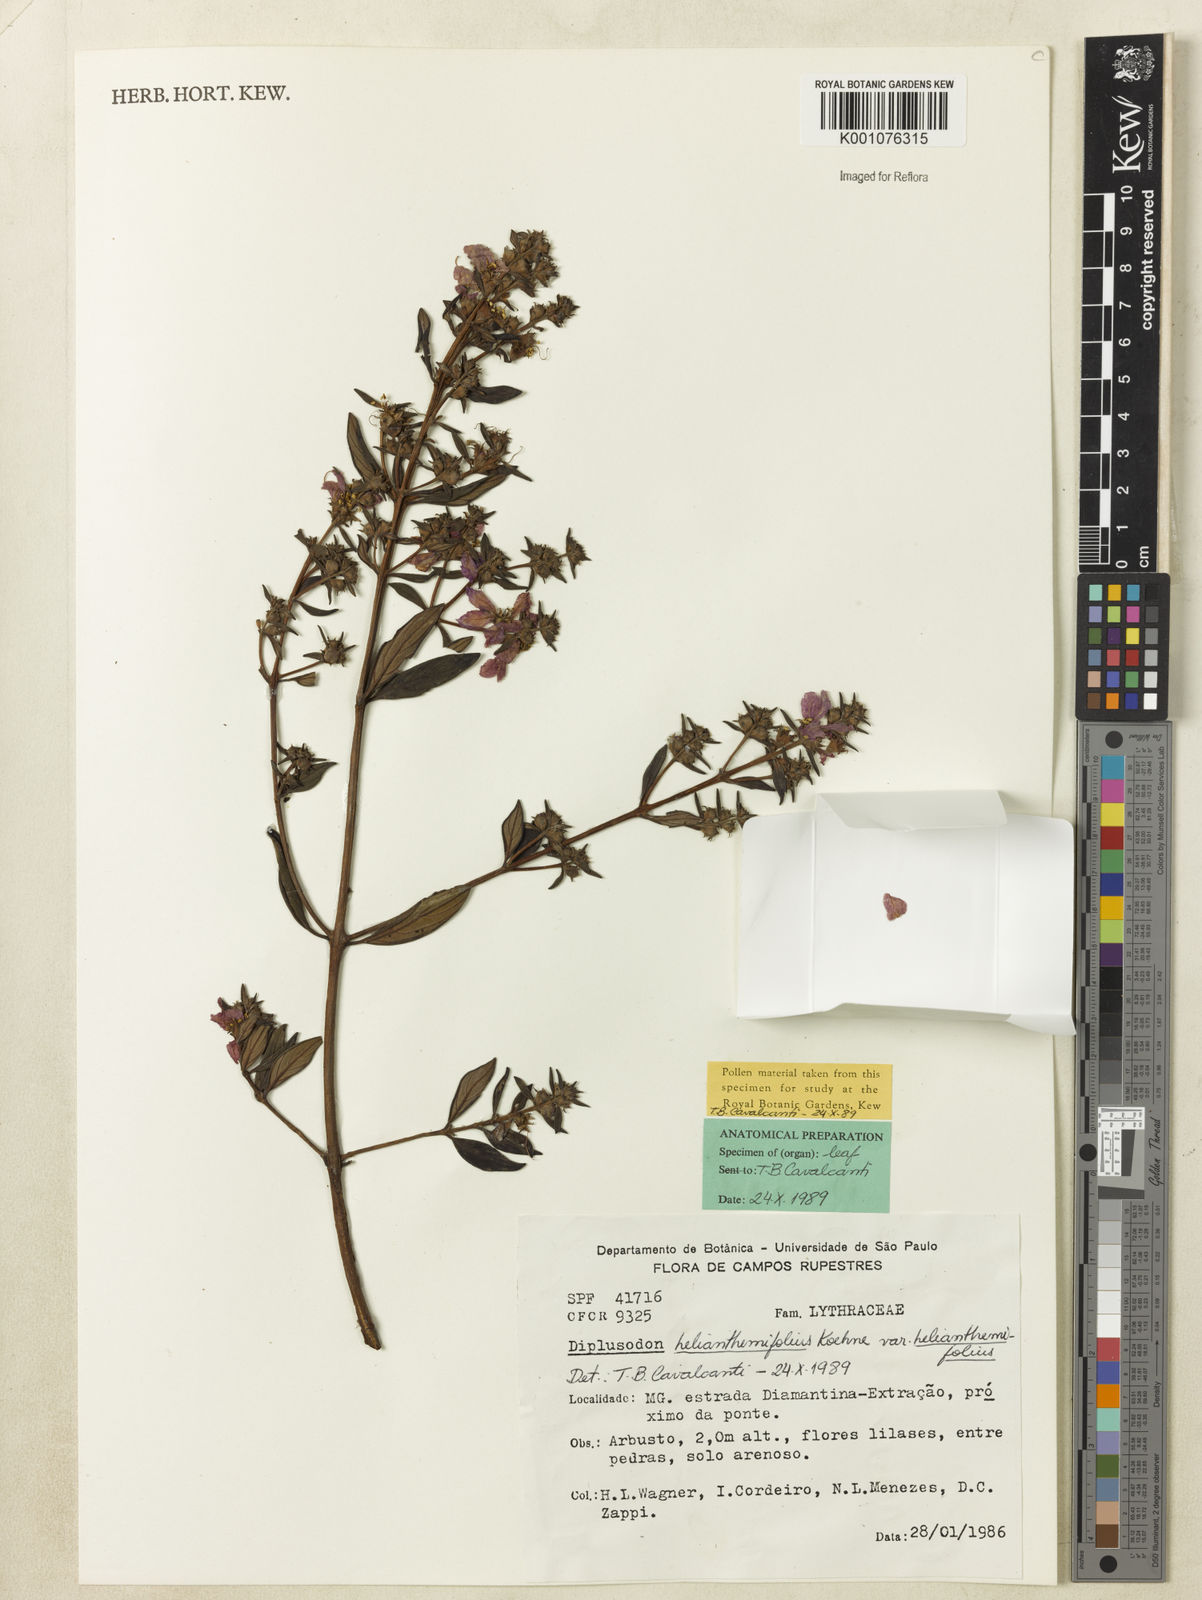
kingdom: Plantae
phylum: Tracheophyta
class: Magnoliopsida
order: Myrtales
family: Lythraceae
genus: Diplusodon
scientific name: Diplusodon helianthemifolius
